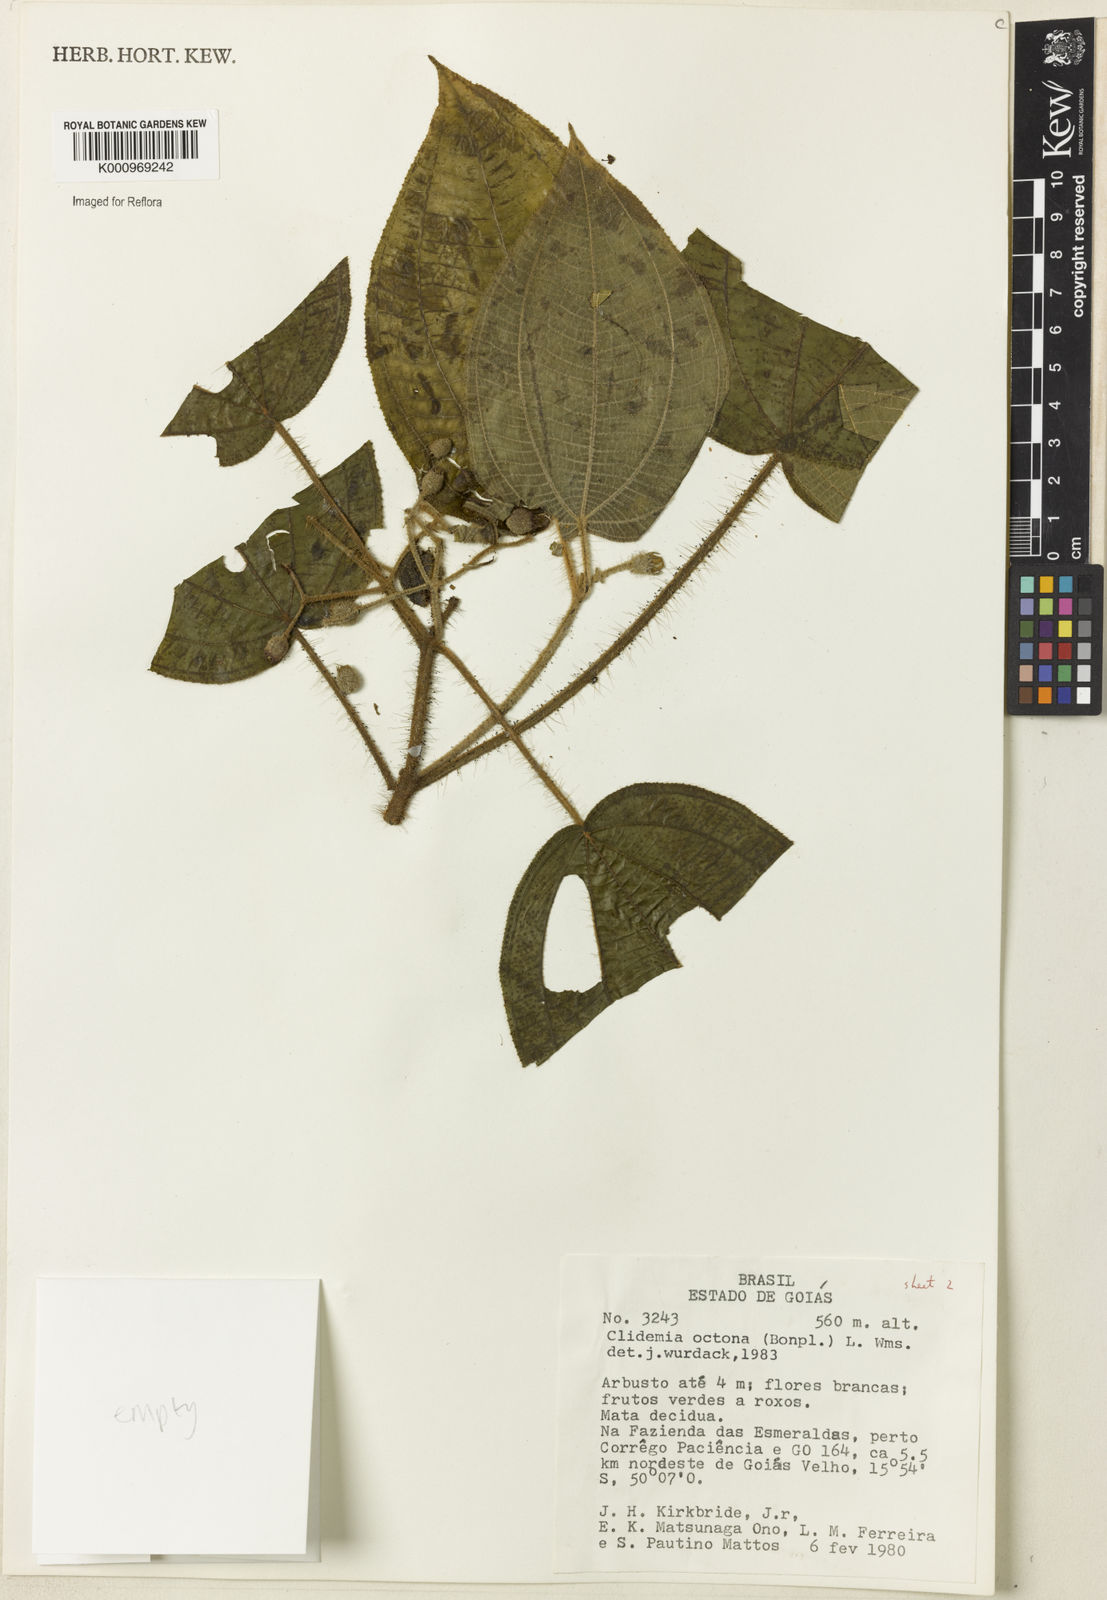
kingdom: Plantae
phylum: Tracheophyta
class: Magnoliopsida
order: Myrtales
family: Melastomataceae
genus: Miconia
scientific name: Miconia octona
